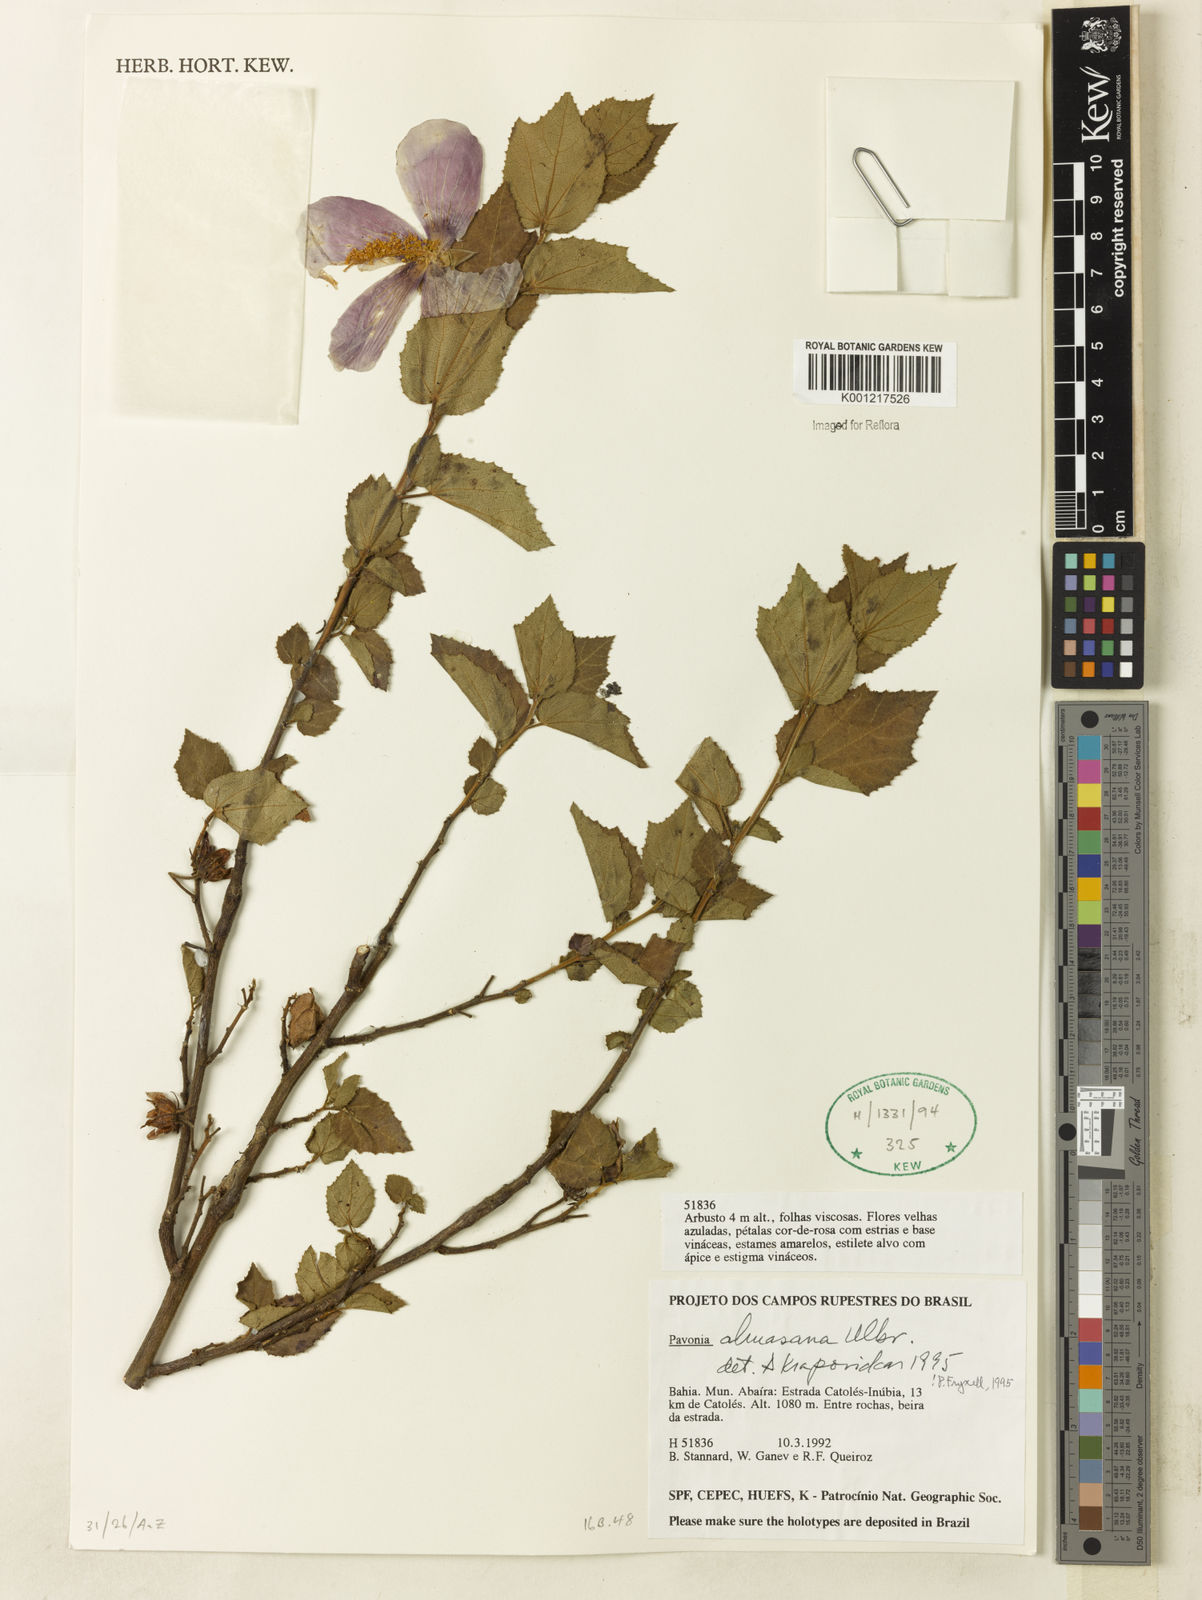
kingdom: Plantae
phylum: Tracheophyta
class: Magnoliopsida
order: Malvales
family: Malvaceae
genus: Pavonia
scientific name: Pavonia almasana
